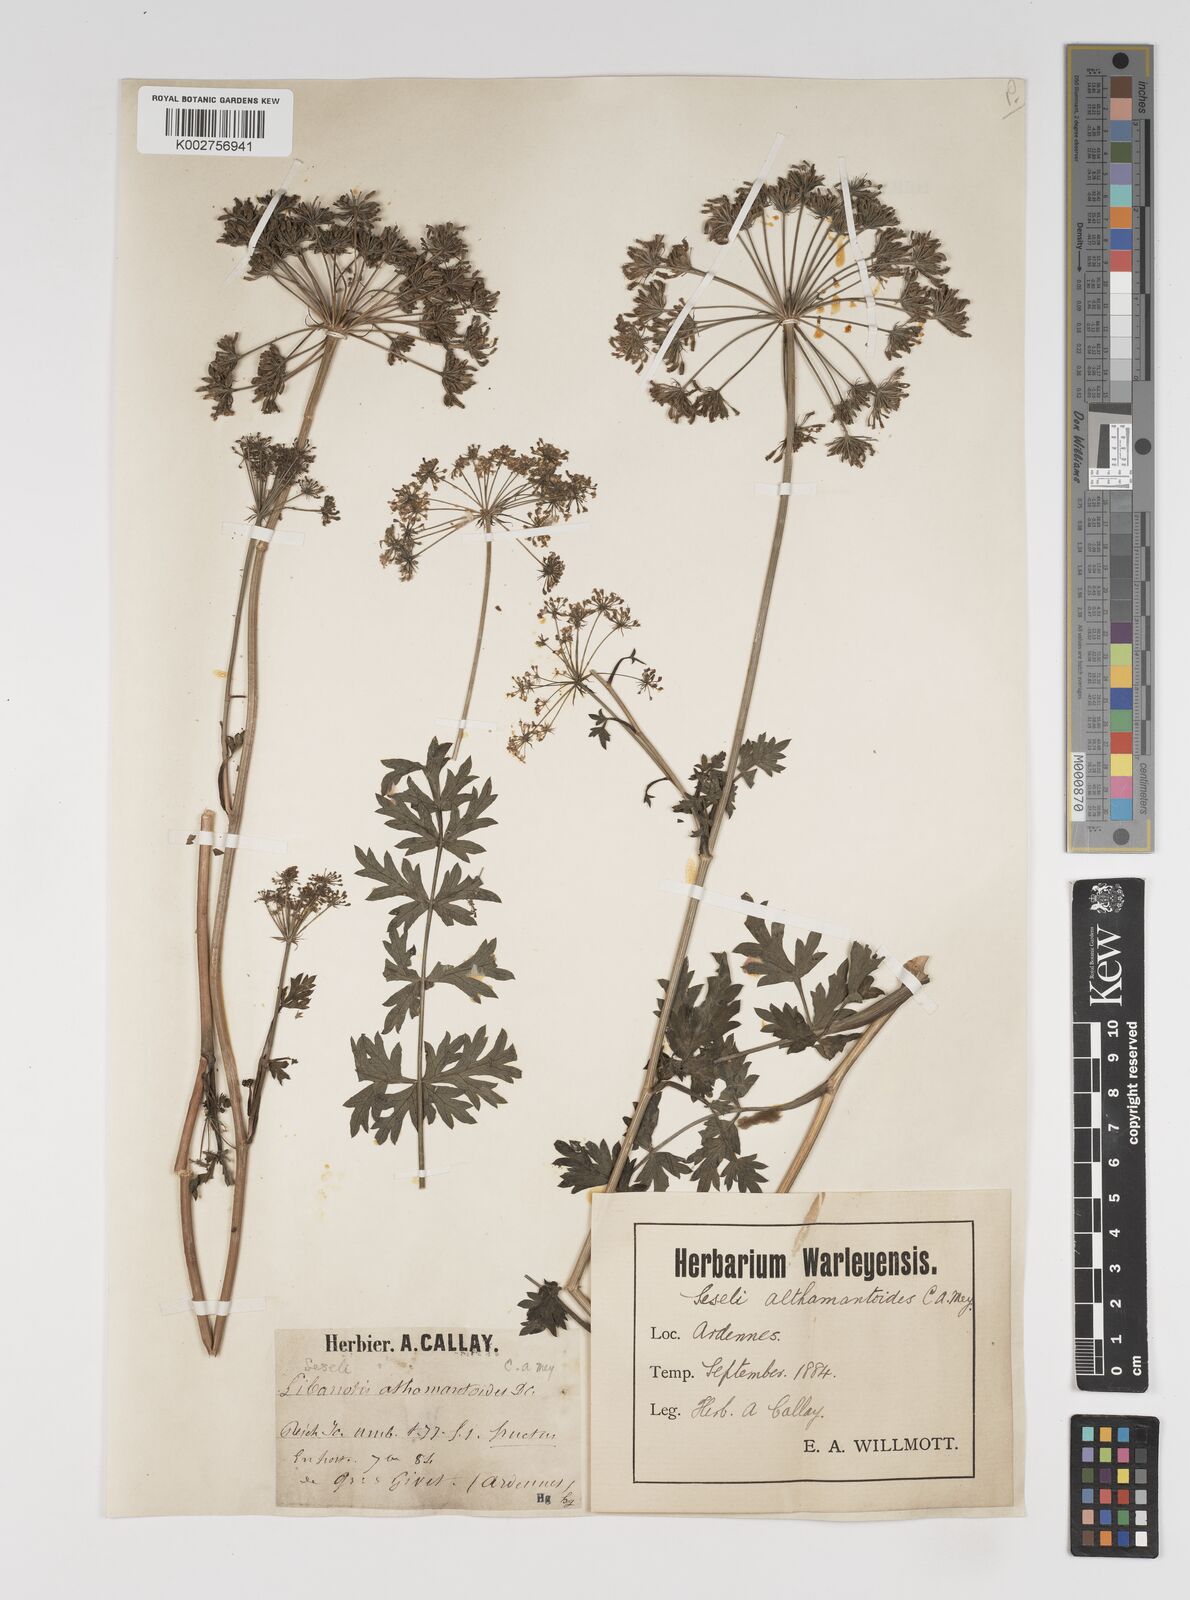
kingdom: Plantae
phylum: Tracheophyta
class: Magnoliopsida
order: Apiales
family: Apiaceae
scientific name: Apiaceae
